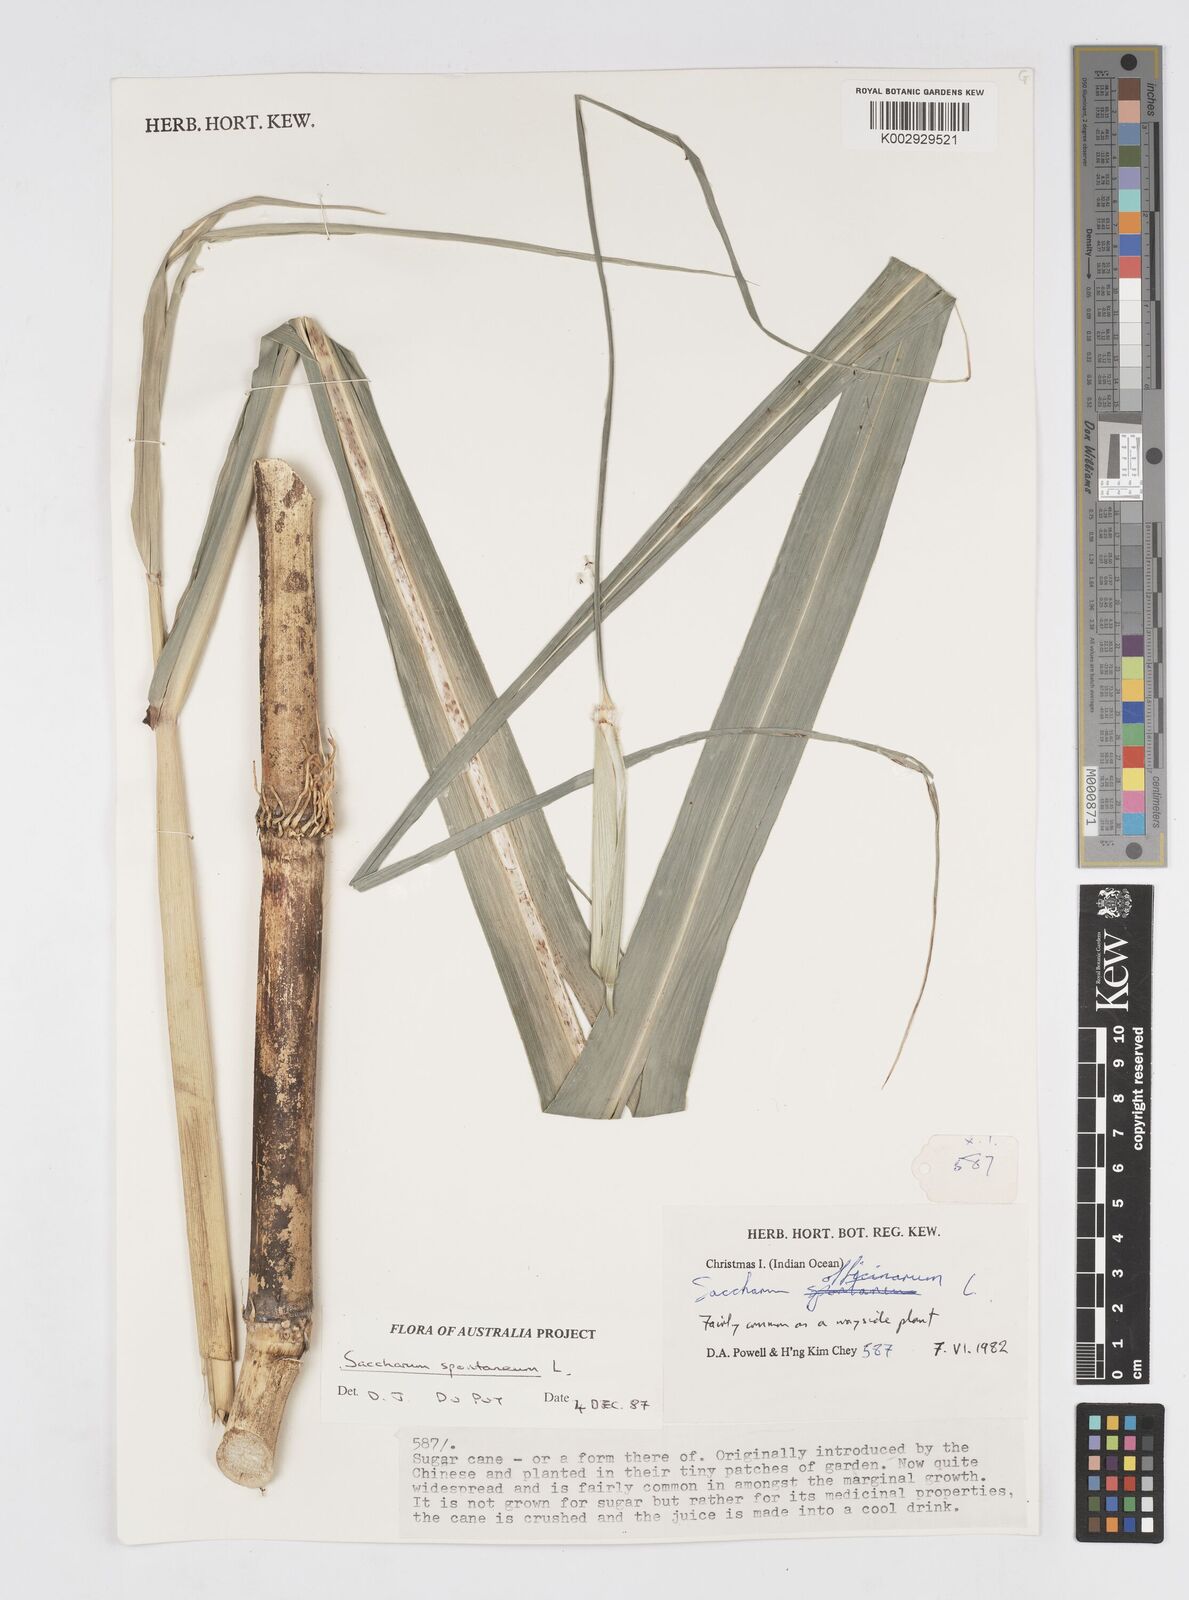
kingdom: Plantae
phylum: Tracheophyta
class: Liliopsida
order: Poales
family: Poaceae
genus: Saccharum
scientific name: Saccharum spontaneum
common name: Wild sugarcane
